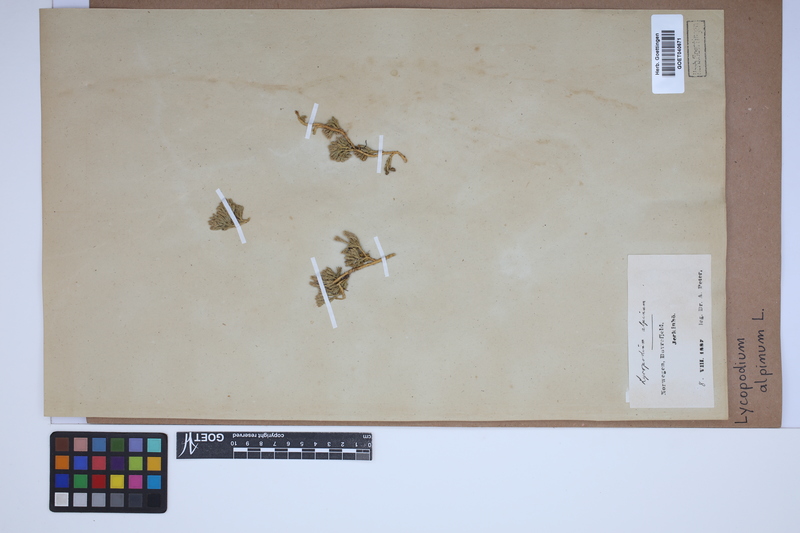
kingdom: Plantae
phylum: Tracheophyta
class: Lycopodiopsida
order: Lycopodiales
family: Lycopodiaceae
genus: Diphasiastrum
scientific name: Diphasiastrum alpinum
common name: Alpine clubmoss
